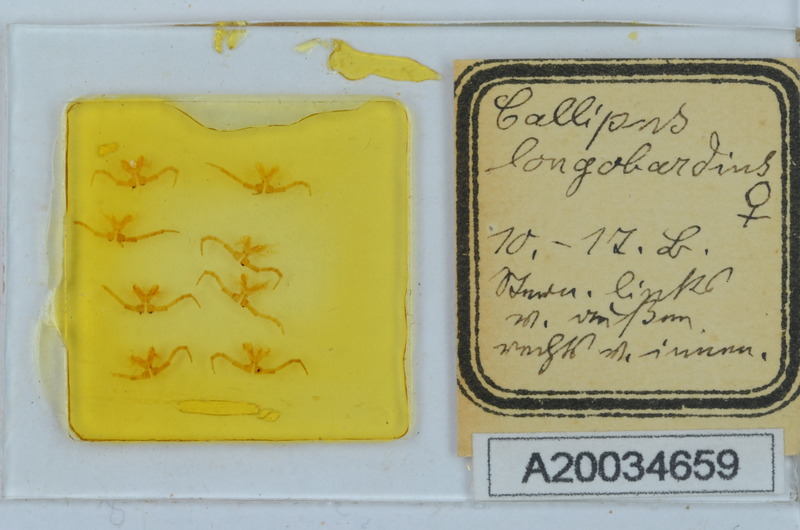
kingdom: Animalia
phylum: Arthropoda
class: Diplopoda
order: Callipodida
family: Callipodidae
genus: Callipus
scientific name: Callipus foetidissimus
